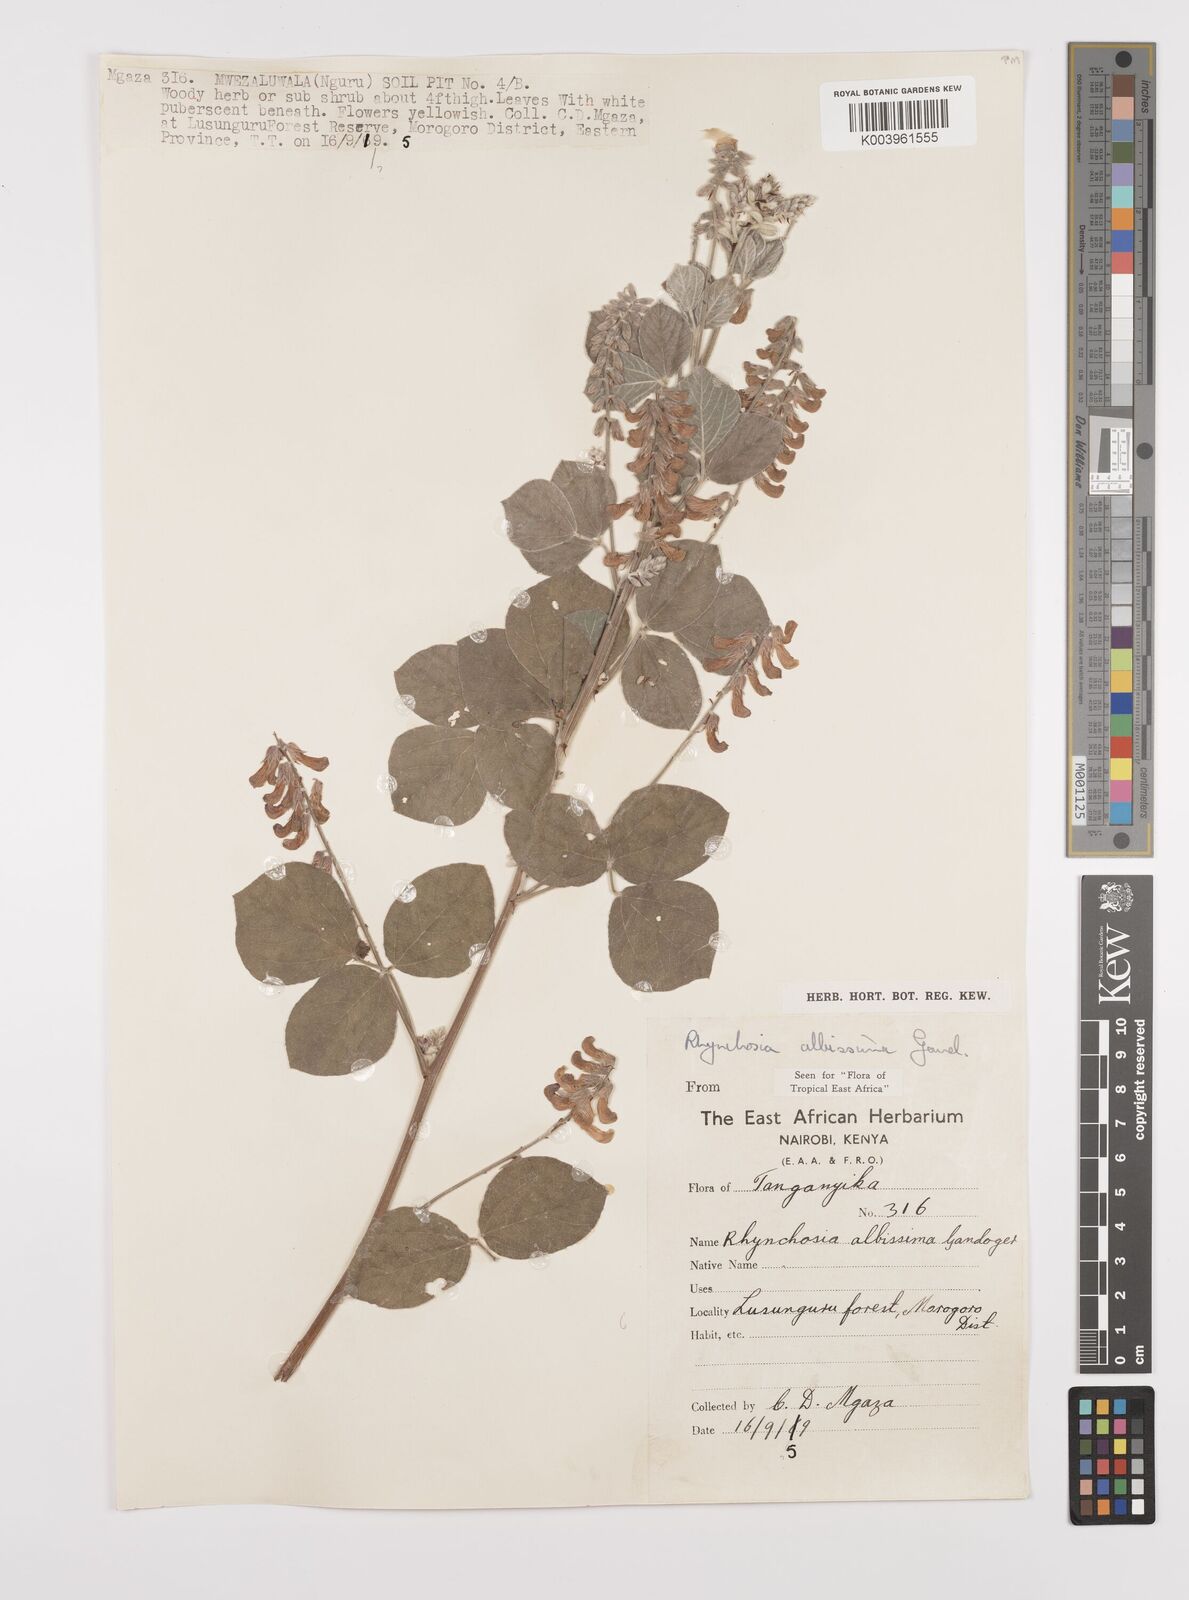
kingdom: Plantae
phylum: Tracheophyta
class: Magnoliopsida
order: Fabales
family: Fabaceae
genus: Rhynchosia
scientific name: Rhynchosia albissima
